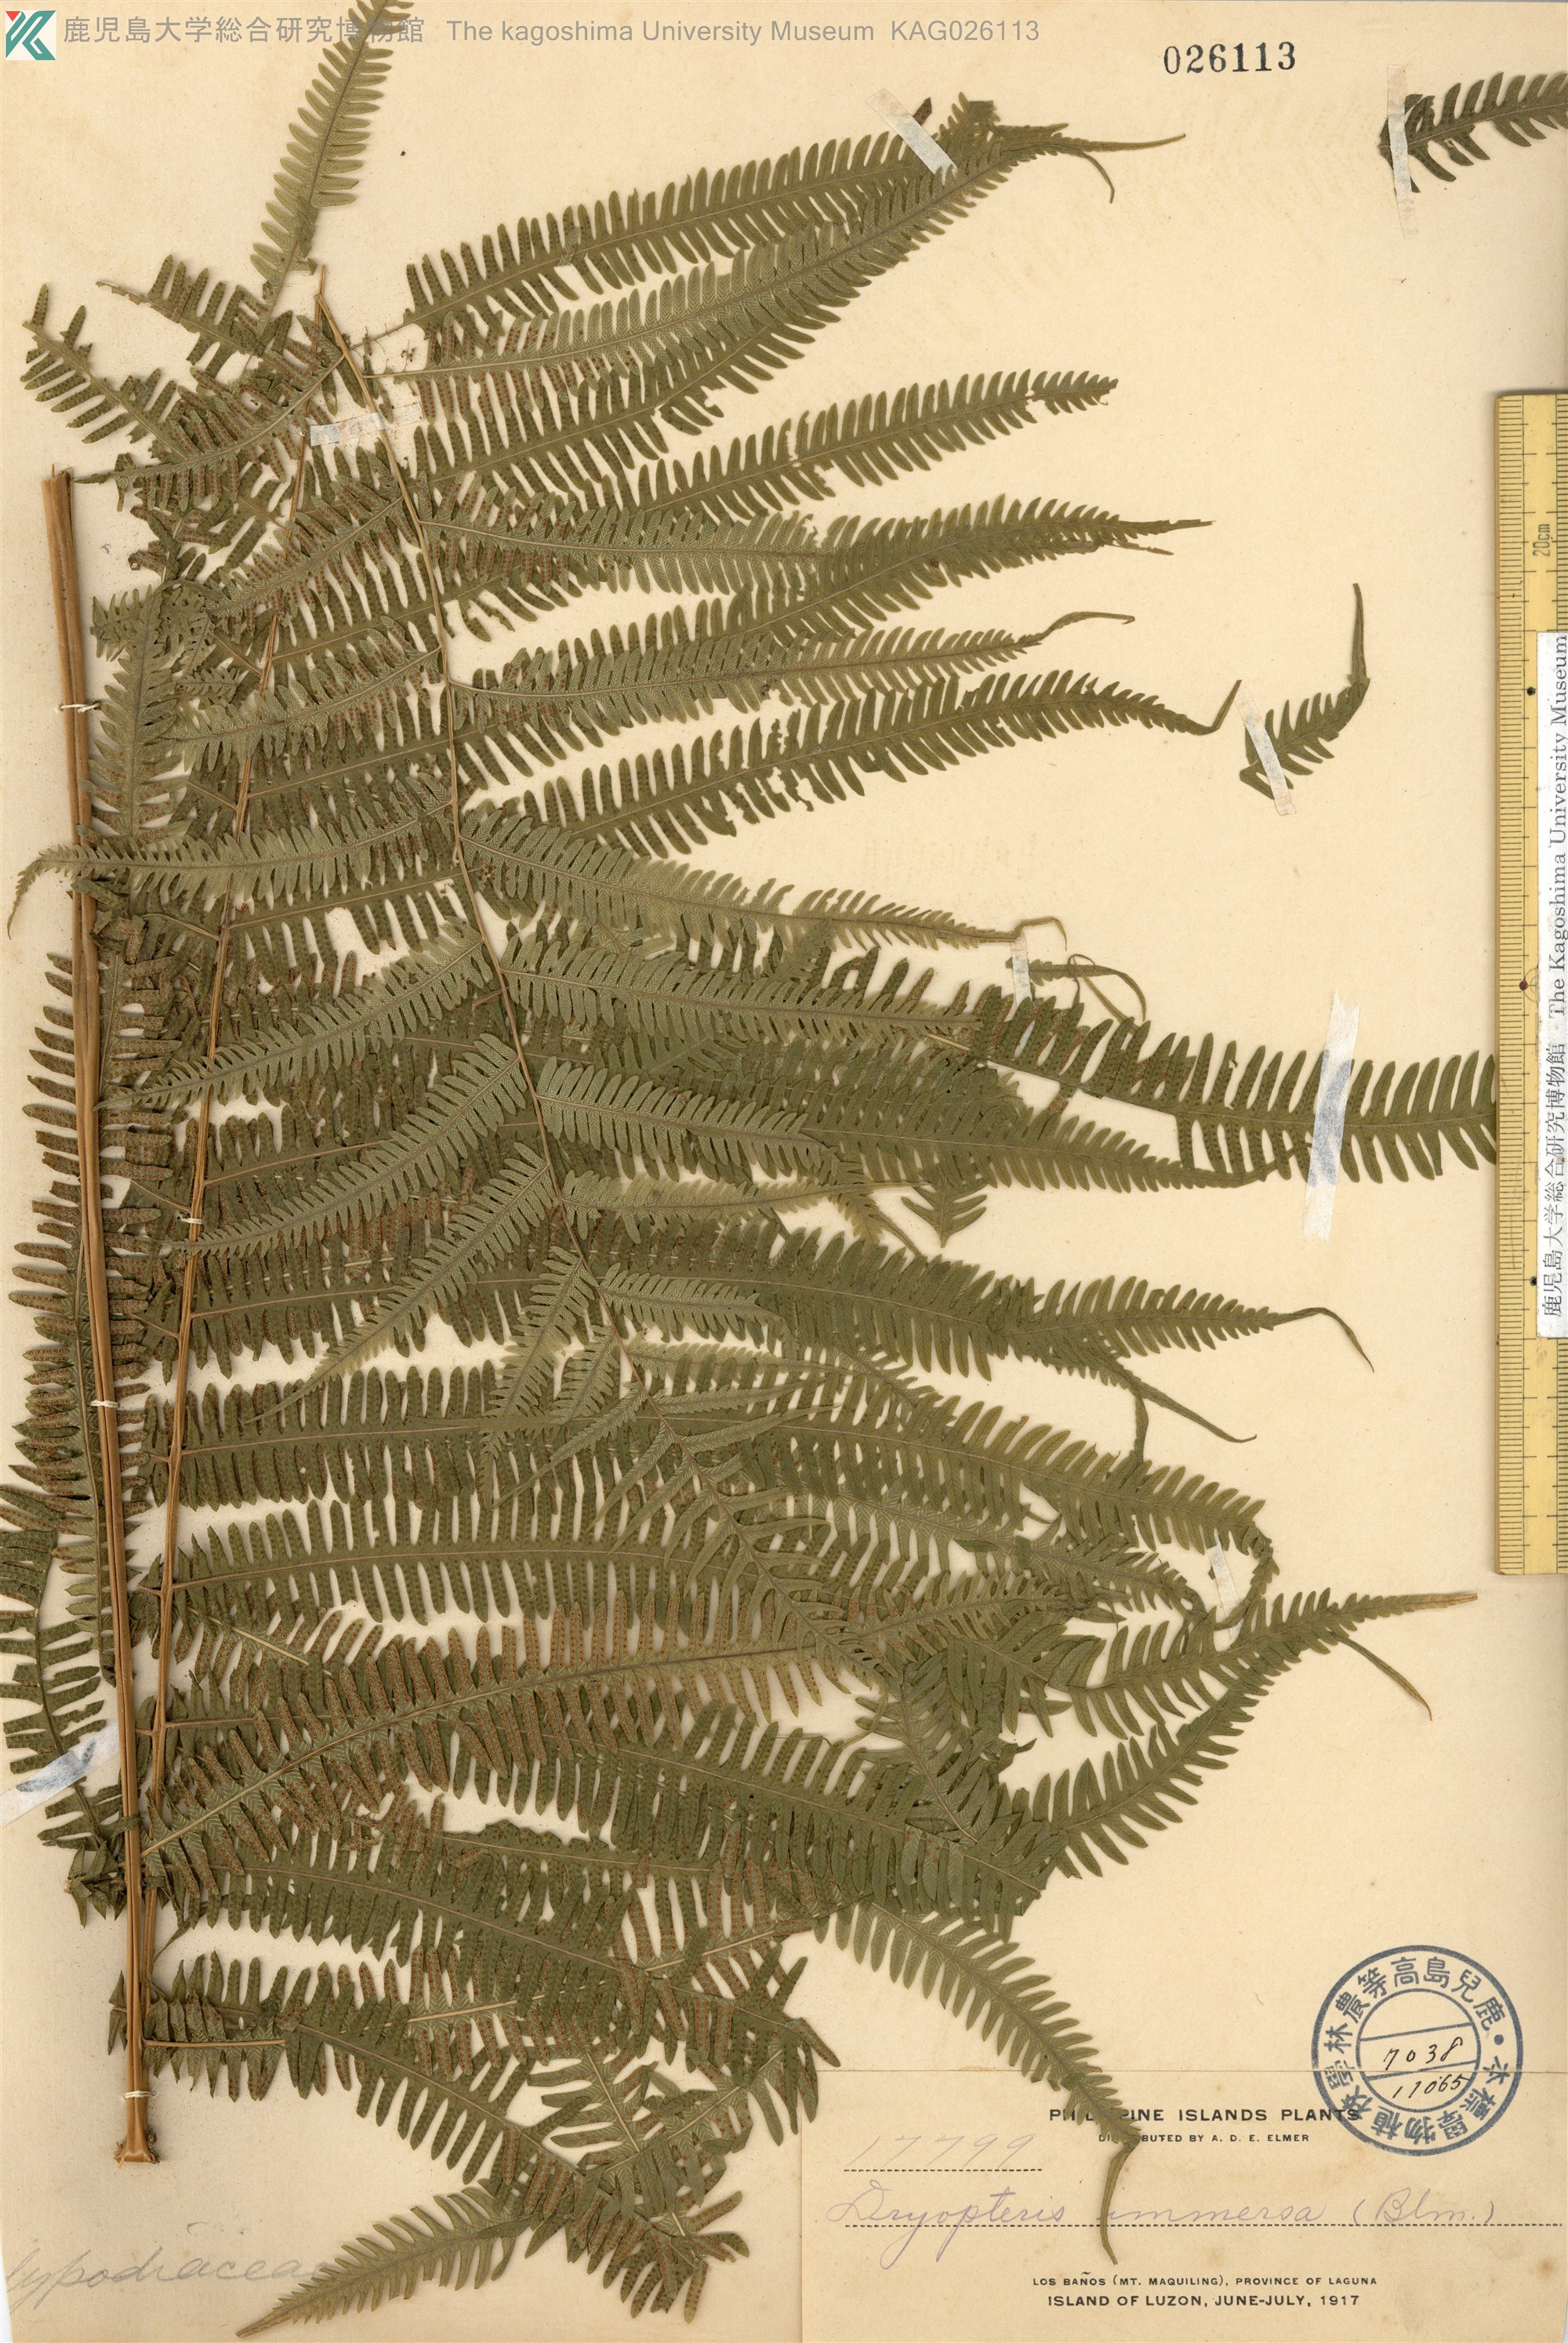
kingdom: Plantae
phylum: Tracheophyta
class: Polypodiopsida
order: Polypodiales
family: Thelypteridaceae
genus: Thelypteris
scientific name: Thelypteris
